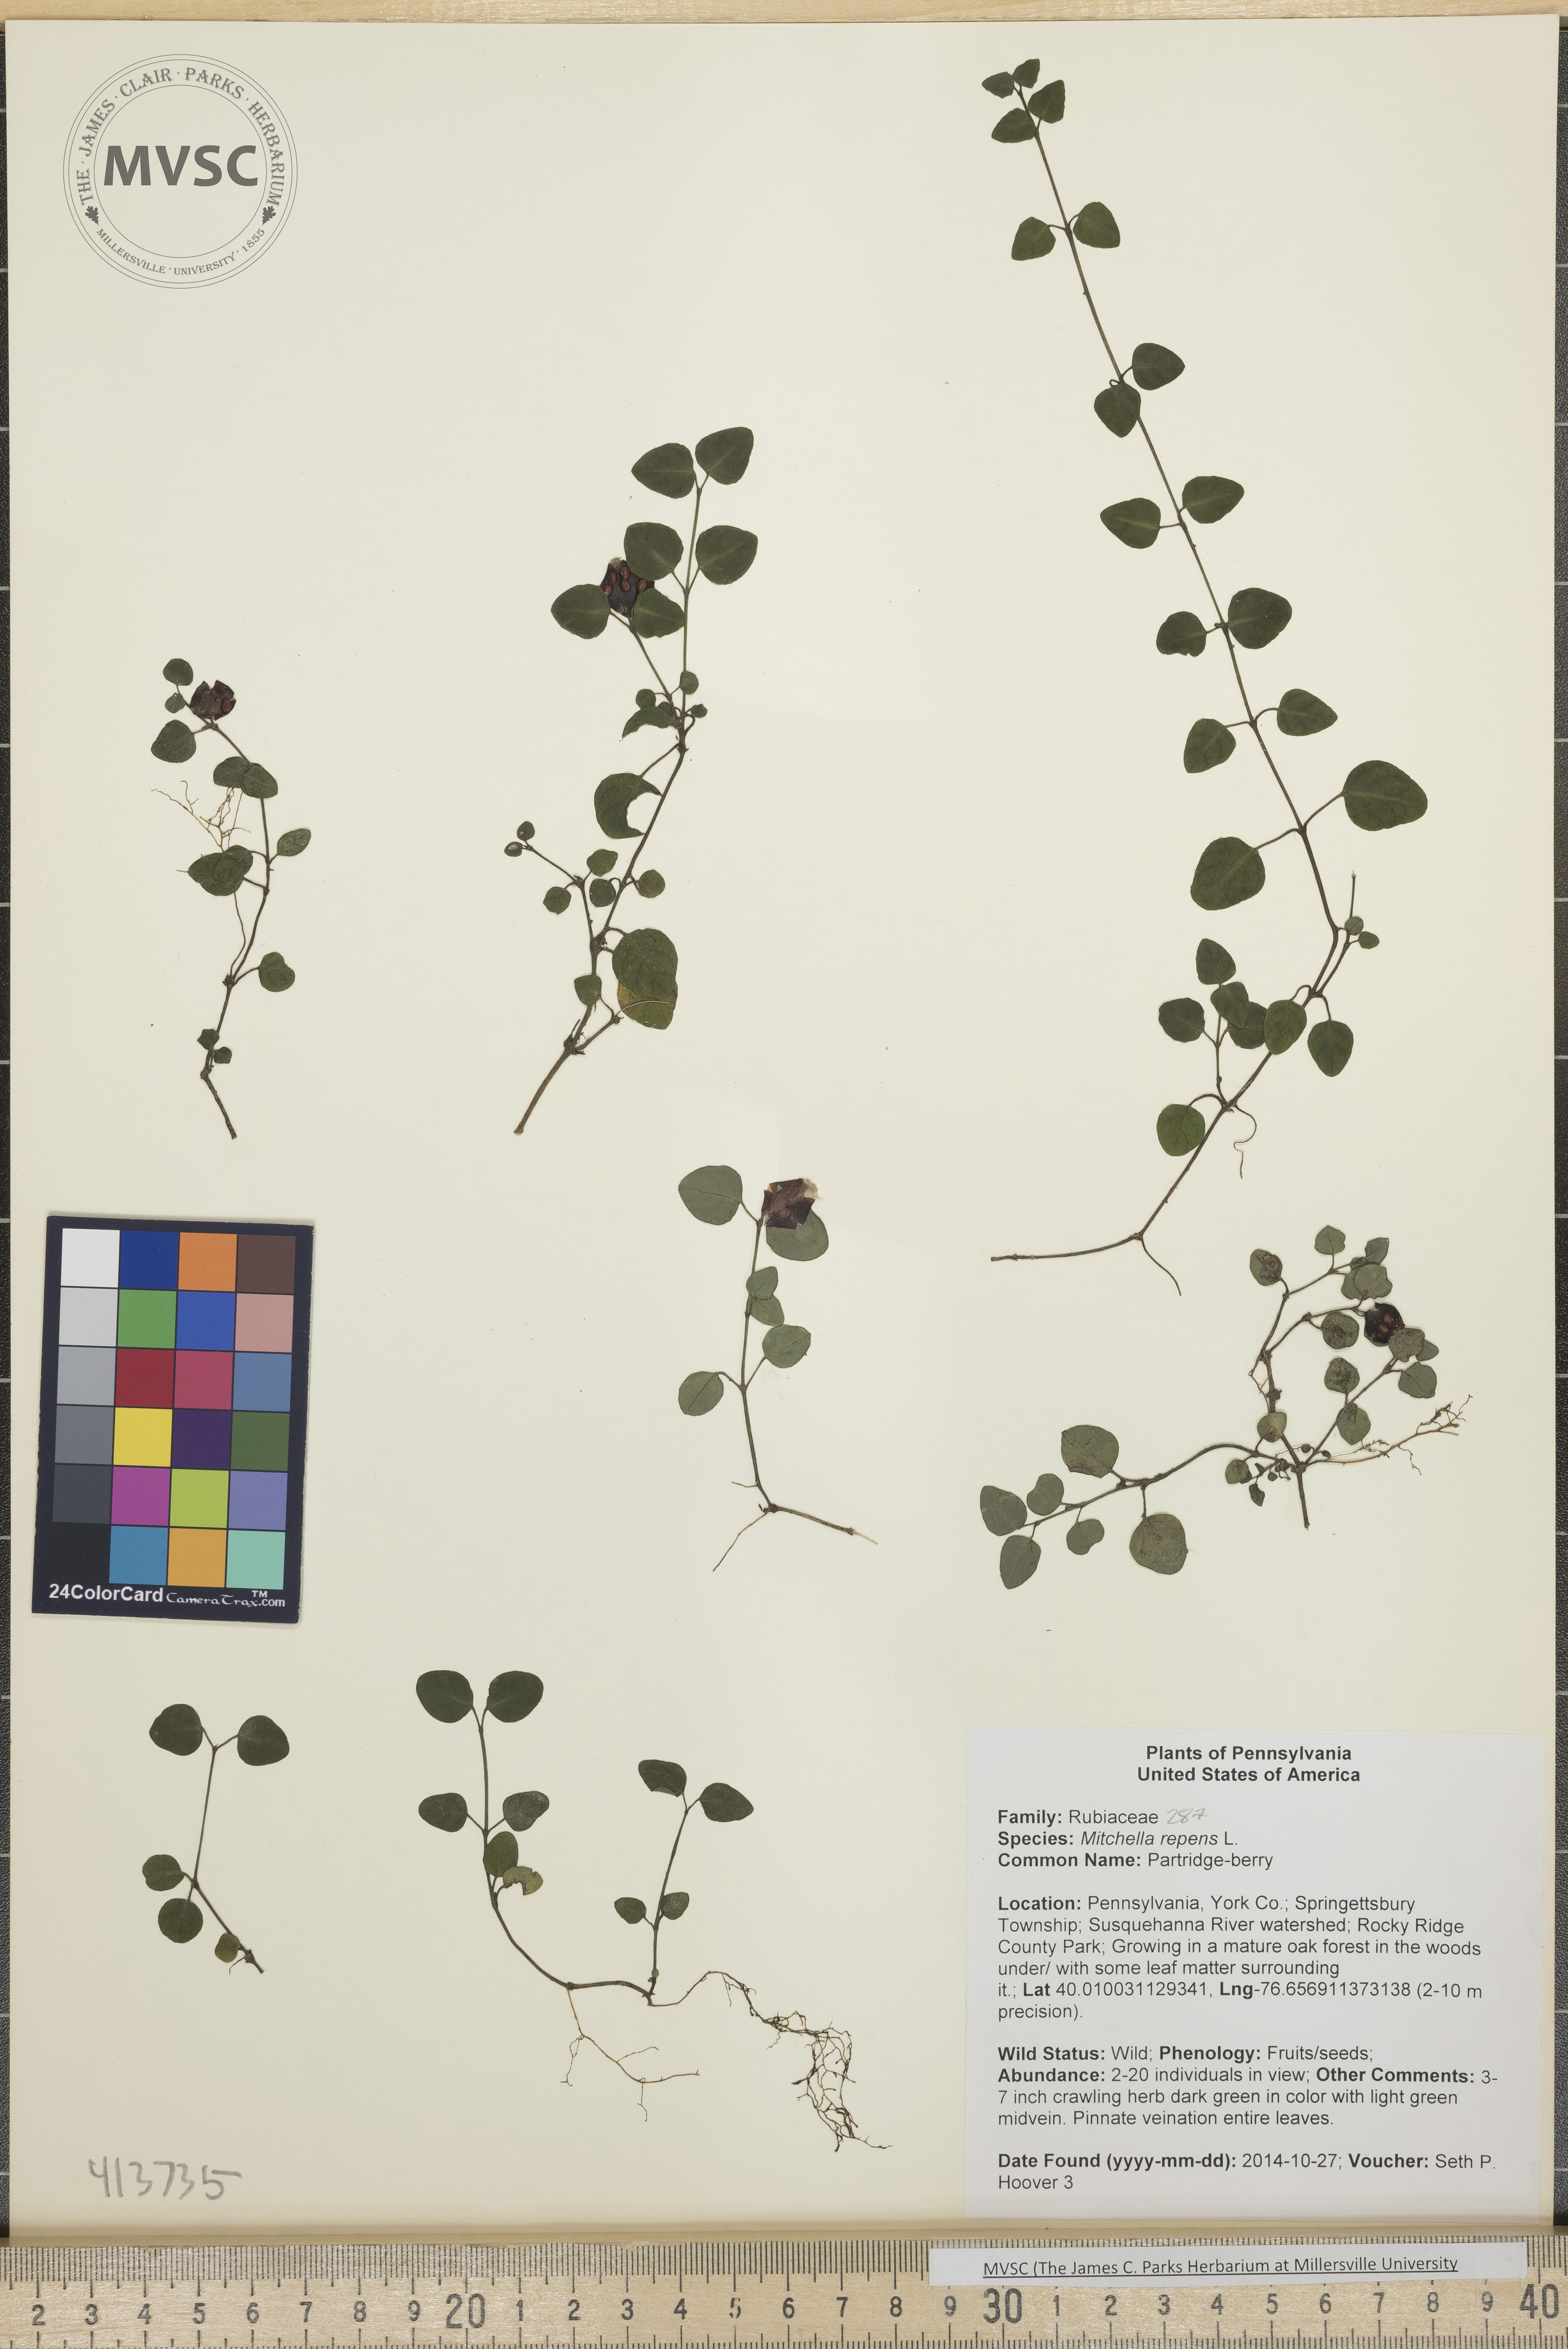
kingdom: Plantae
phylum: Tracheophyta
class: Magnoliopsida
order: Gentianales
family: Rubiaceae
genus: Mitchella
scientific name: Mitchella repens
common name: Partridge-berry
